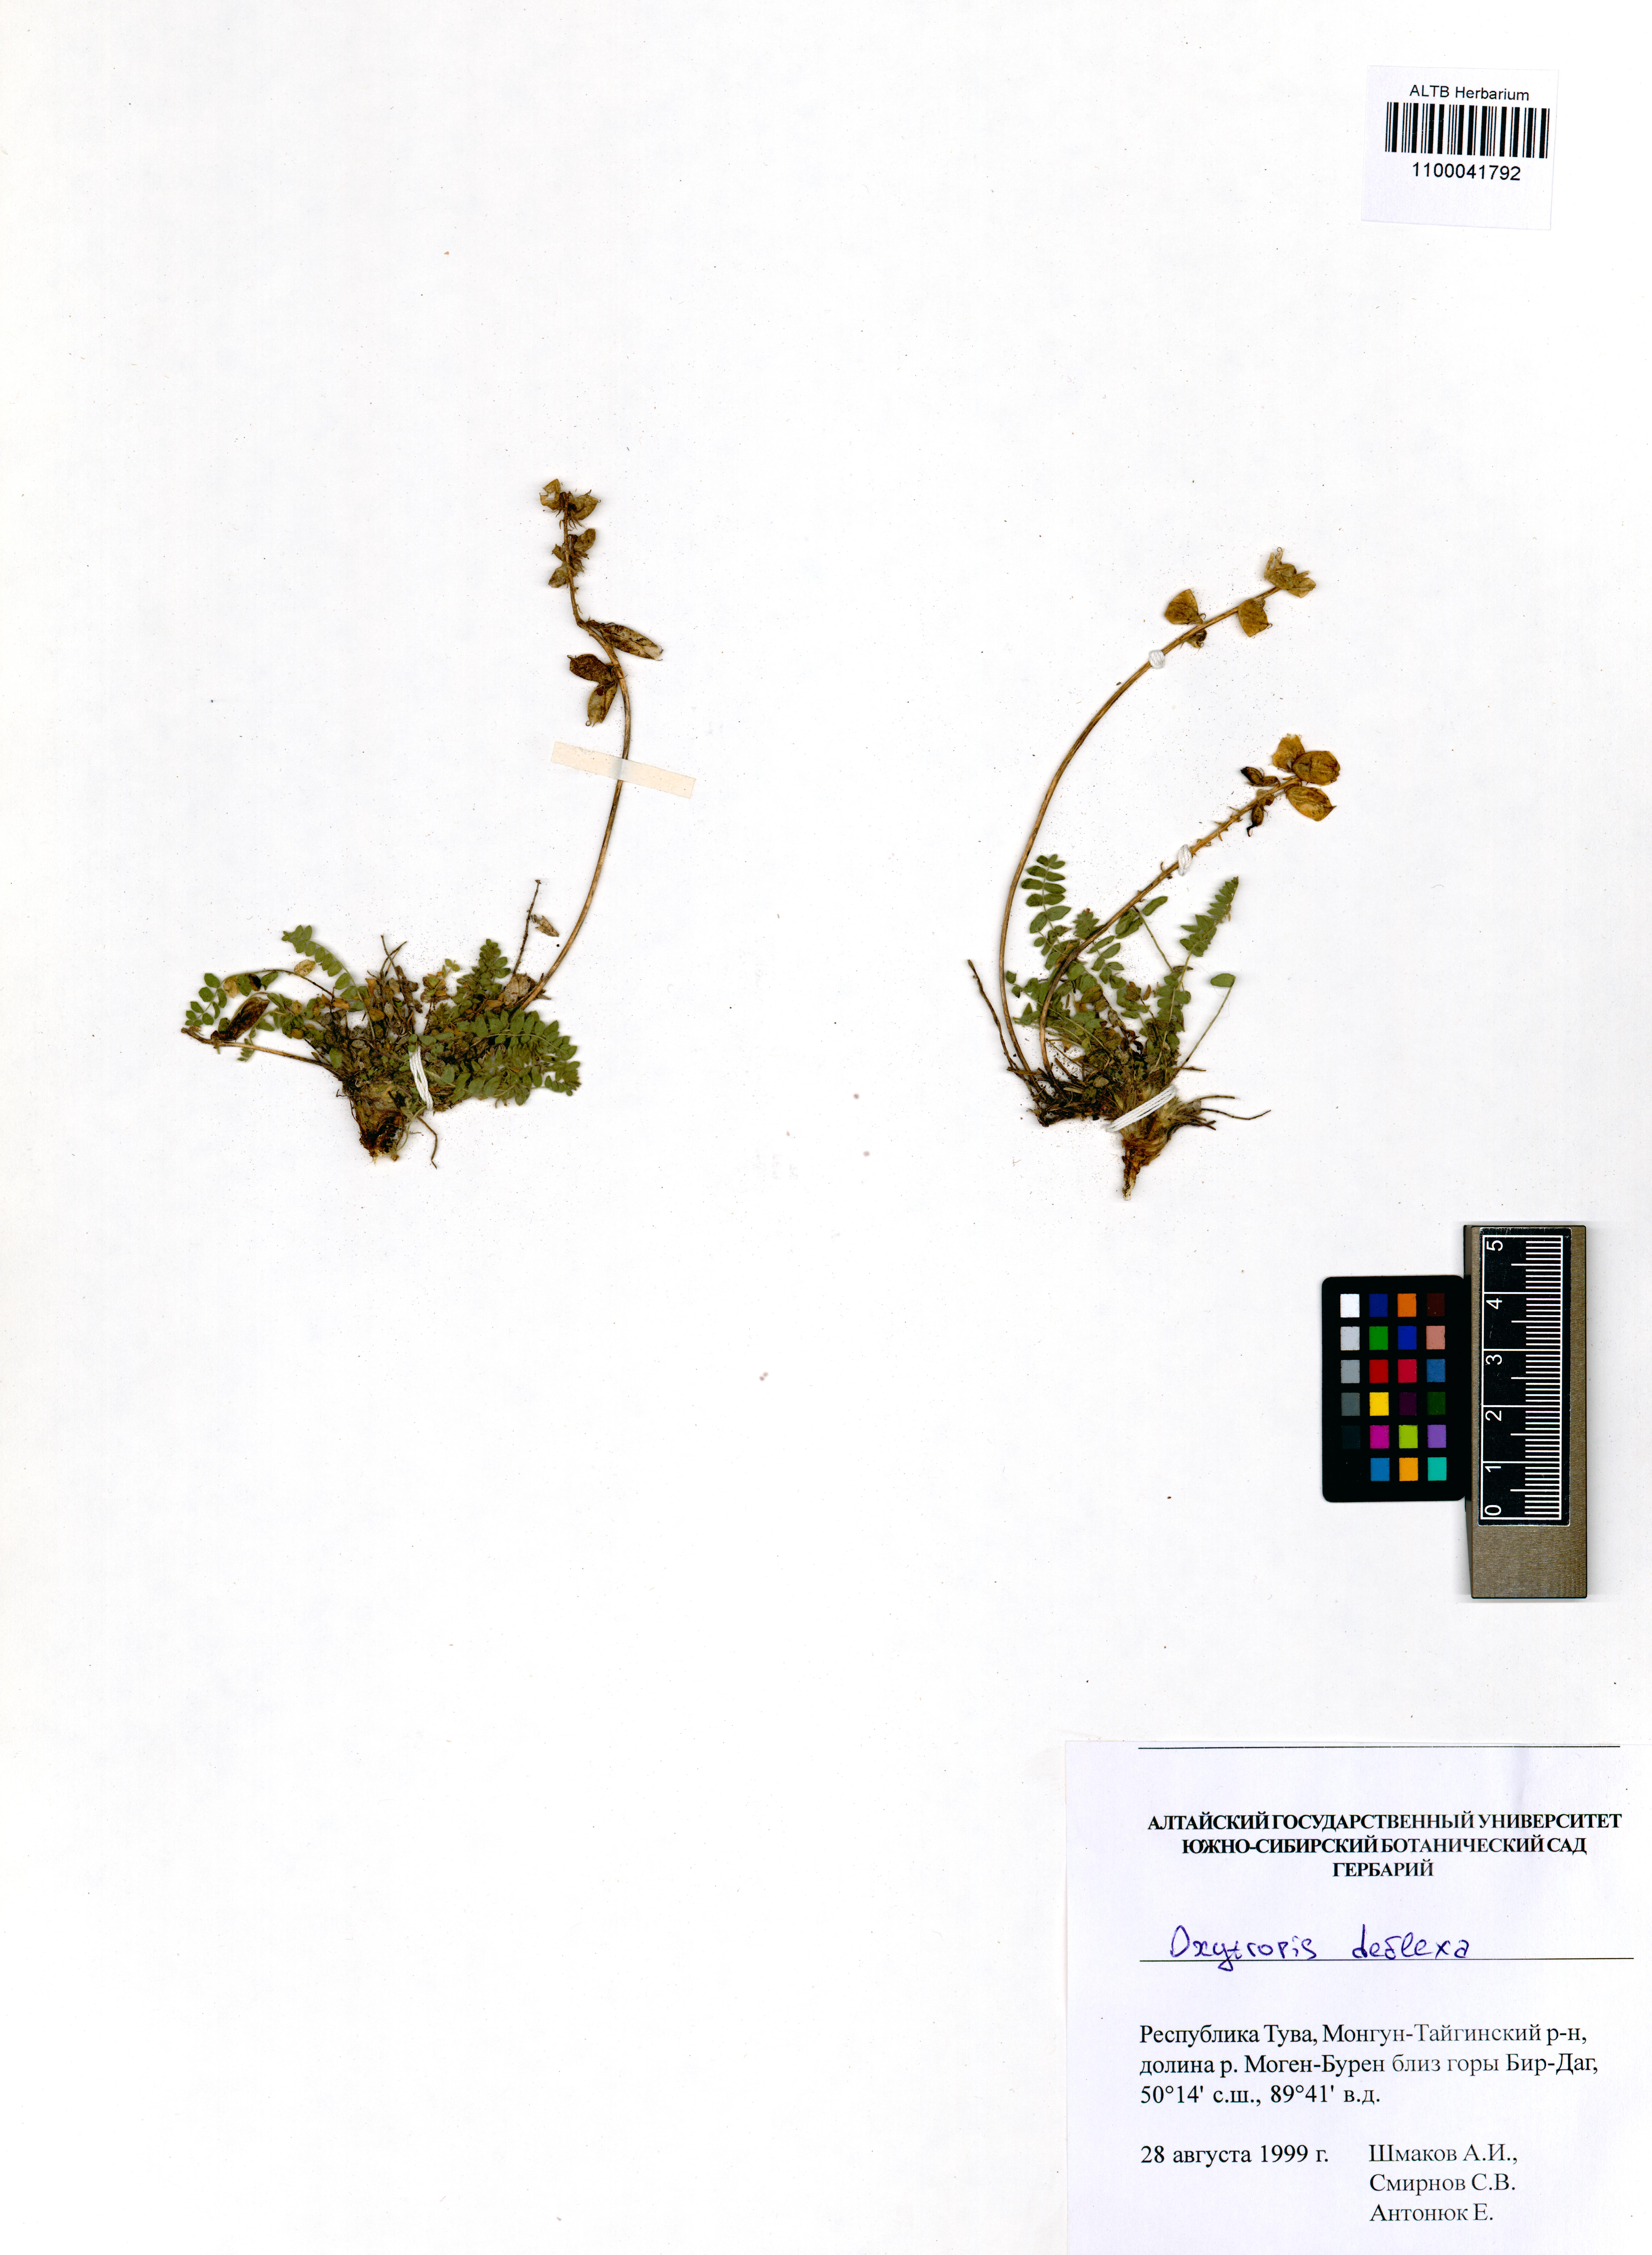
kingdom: Plantae
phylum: Tracheophyta
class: Magnoliopsida
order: Fabales
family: Fabaceae
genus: Oxytropis
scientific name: Oxytropis deflexa
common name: Stemmed oxytrope
